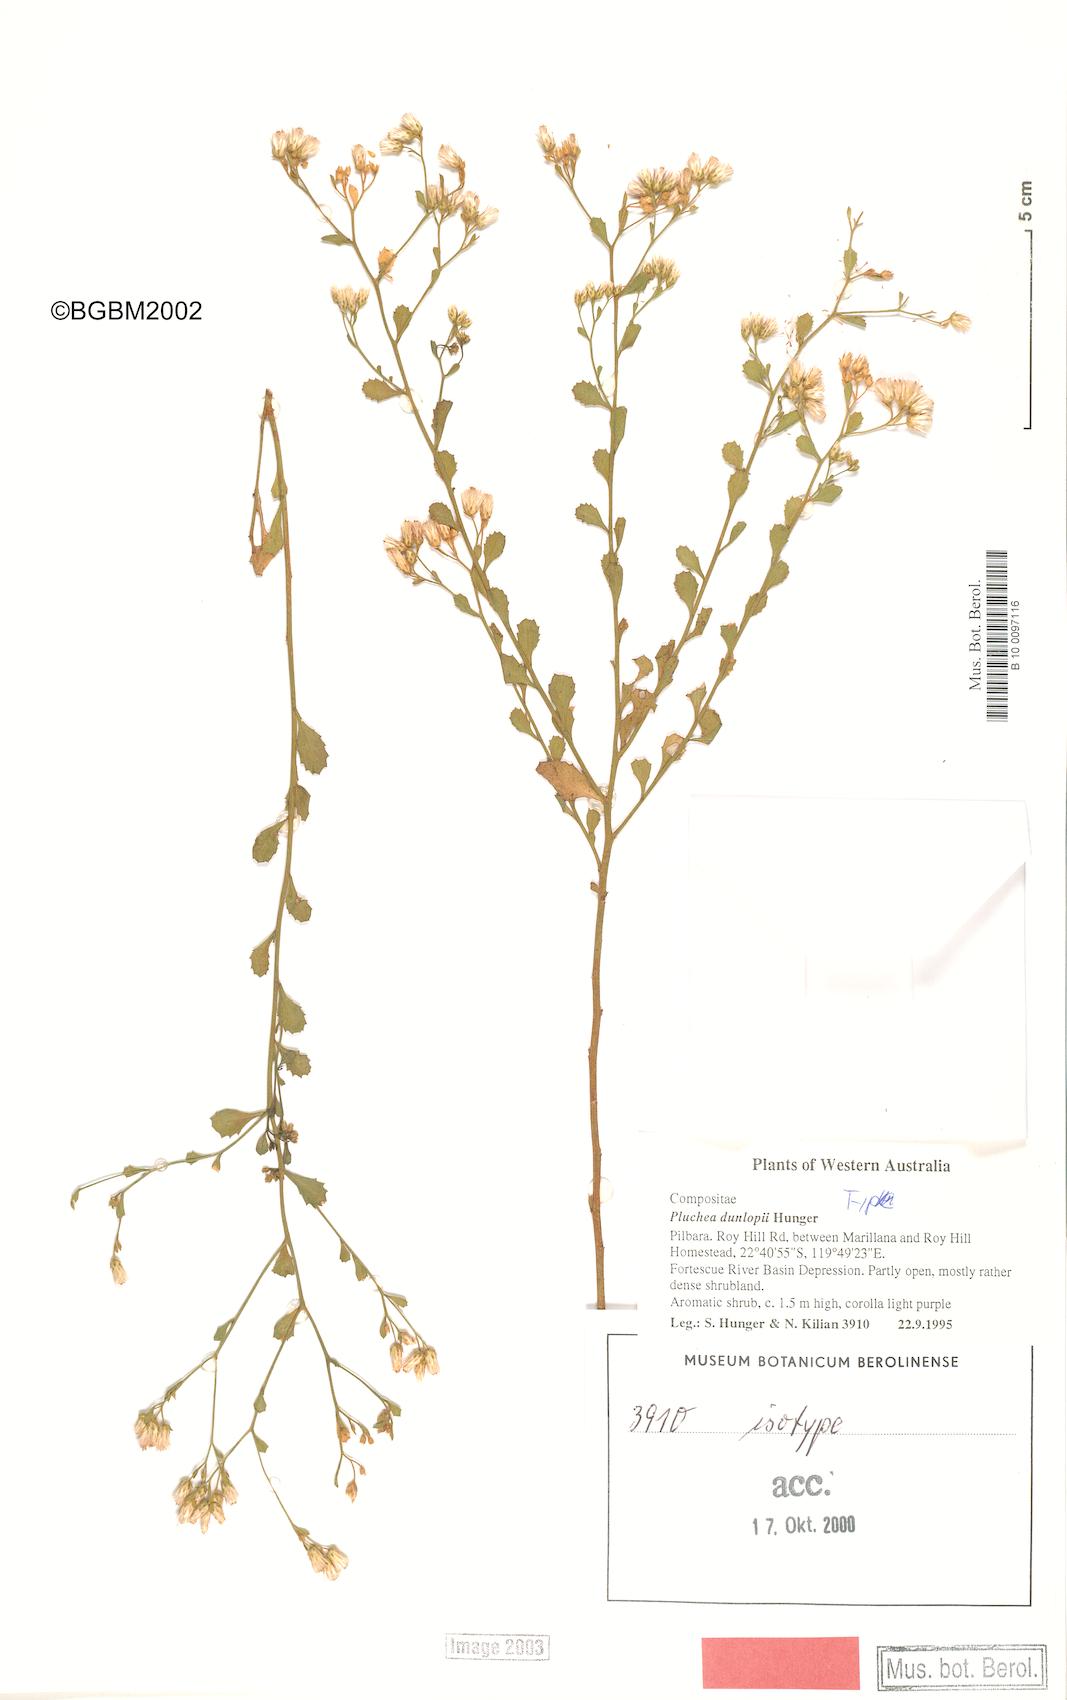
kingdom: Plantae
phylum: Tracheophyta
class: Magnoliopsida
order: Asterales
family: Asteraceae
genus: Pluchea
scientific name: Pluchea dunlopii
